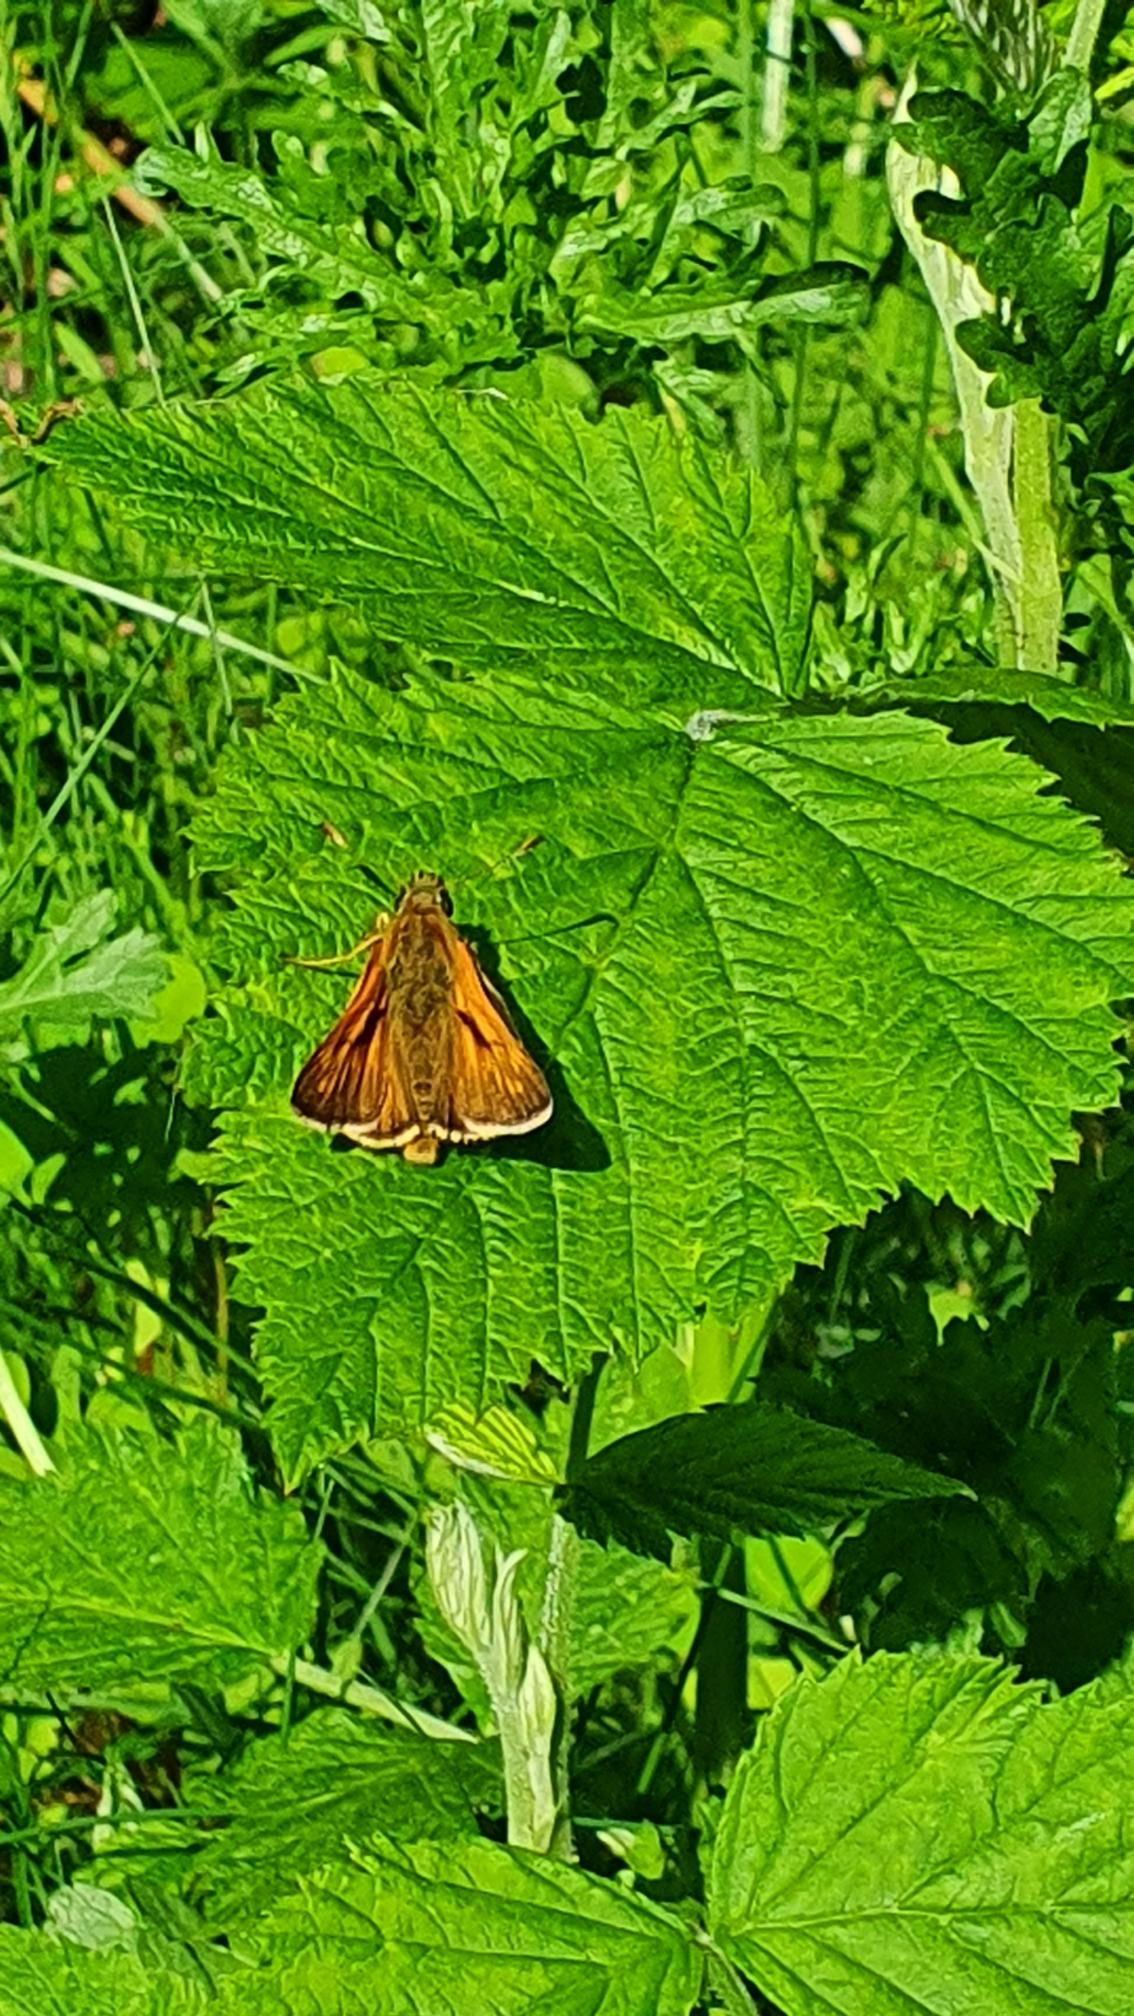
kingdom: Animalia
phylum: Arthropoda
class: Insecta
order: Lepidoptera
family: Hesperiidae
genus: Ochlodes
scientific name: Ochlodes venata
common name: Stor bredpande
